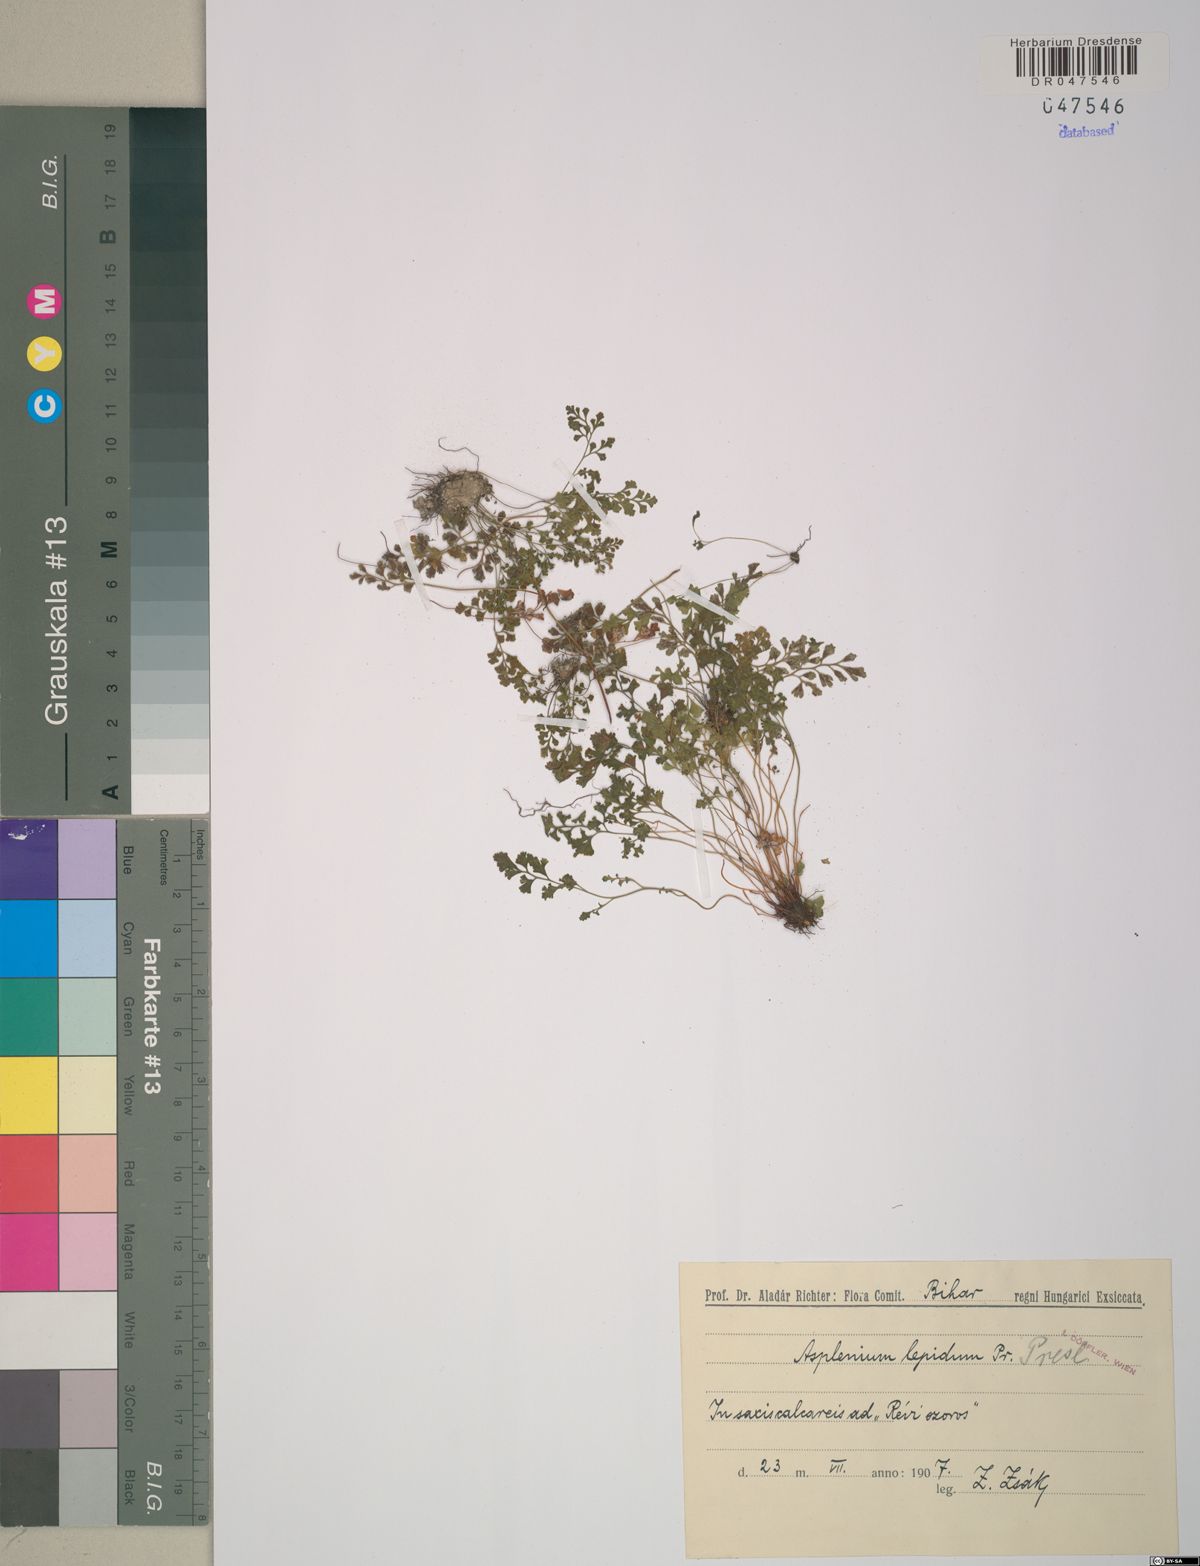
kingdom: Plantae
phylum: Tracheophyta
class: Polypodiopsida
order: Polypodiales
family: Aspleniaceae
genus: Asplenium
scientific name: Asplenium lepidum
